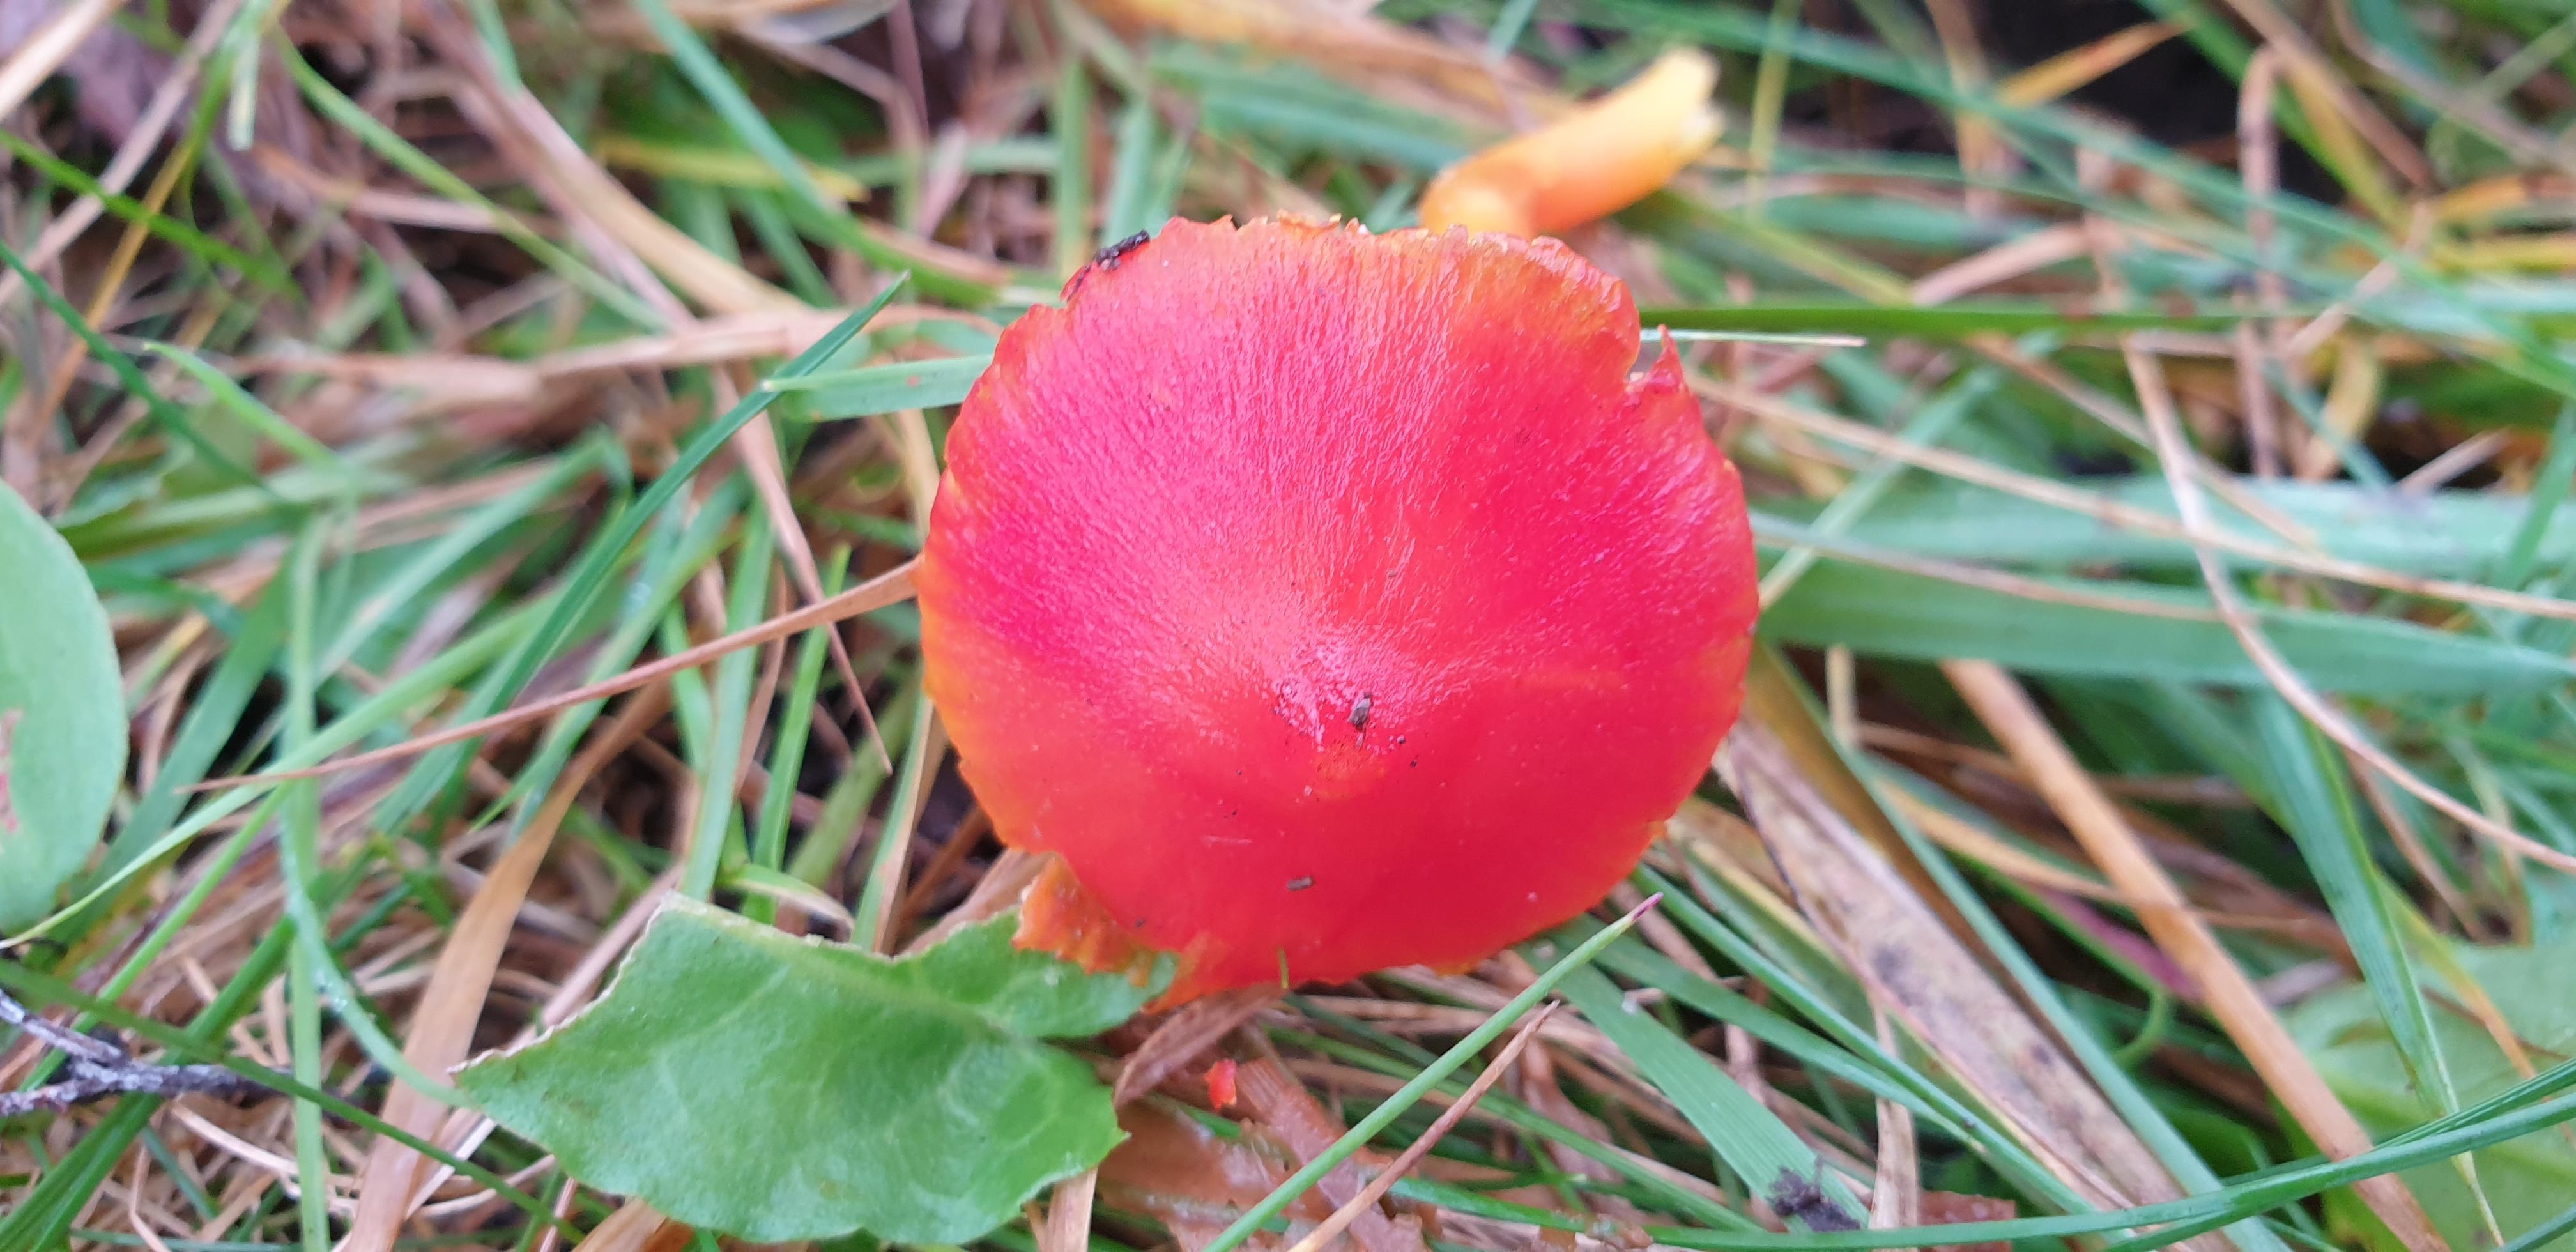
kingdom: Fungi
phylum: Basidiomycota
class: Agaricomycetes
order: Agaricales
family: Hygrophoraceae
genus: Hygrocybe
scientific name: Hygrocybe miniata
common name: mønje-vokshat
